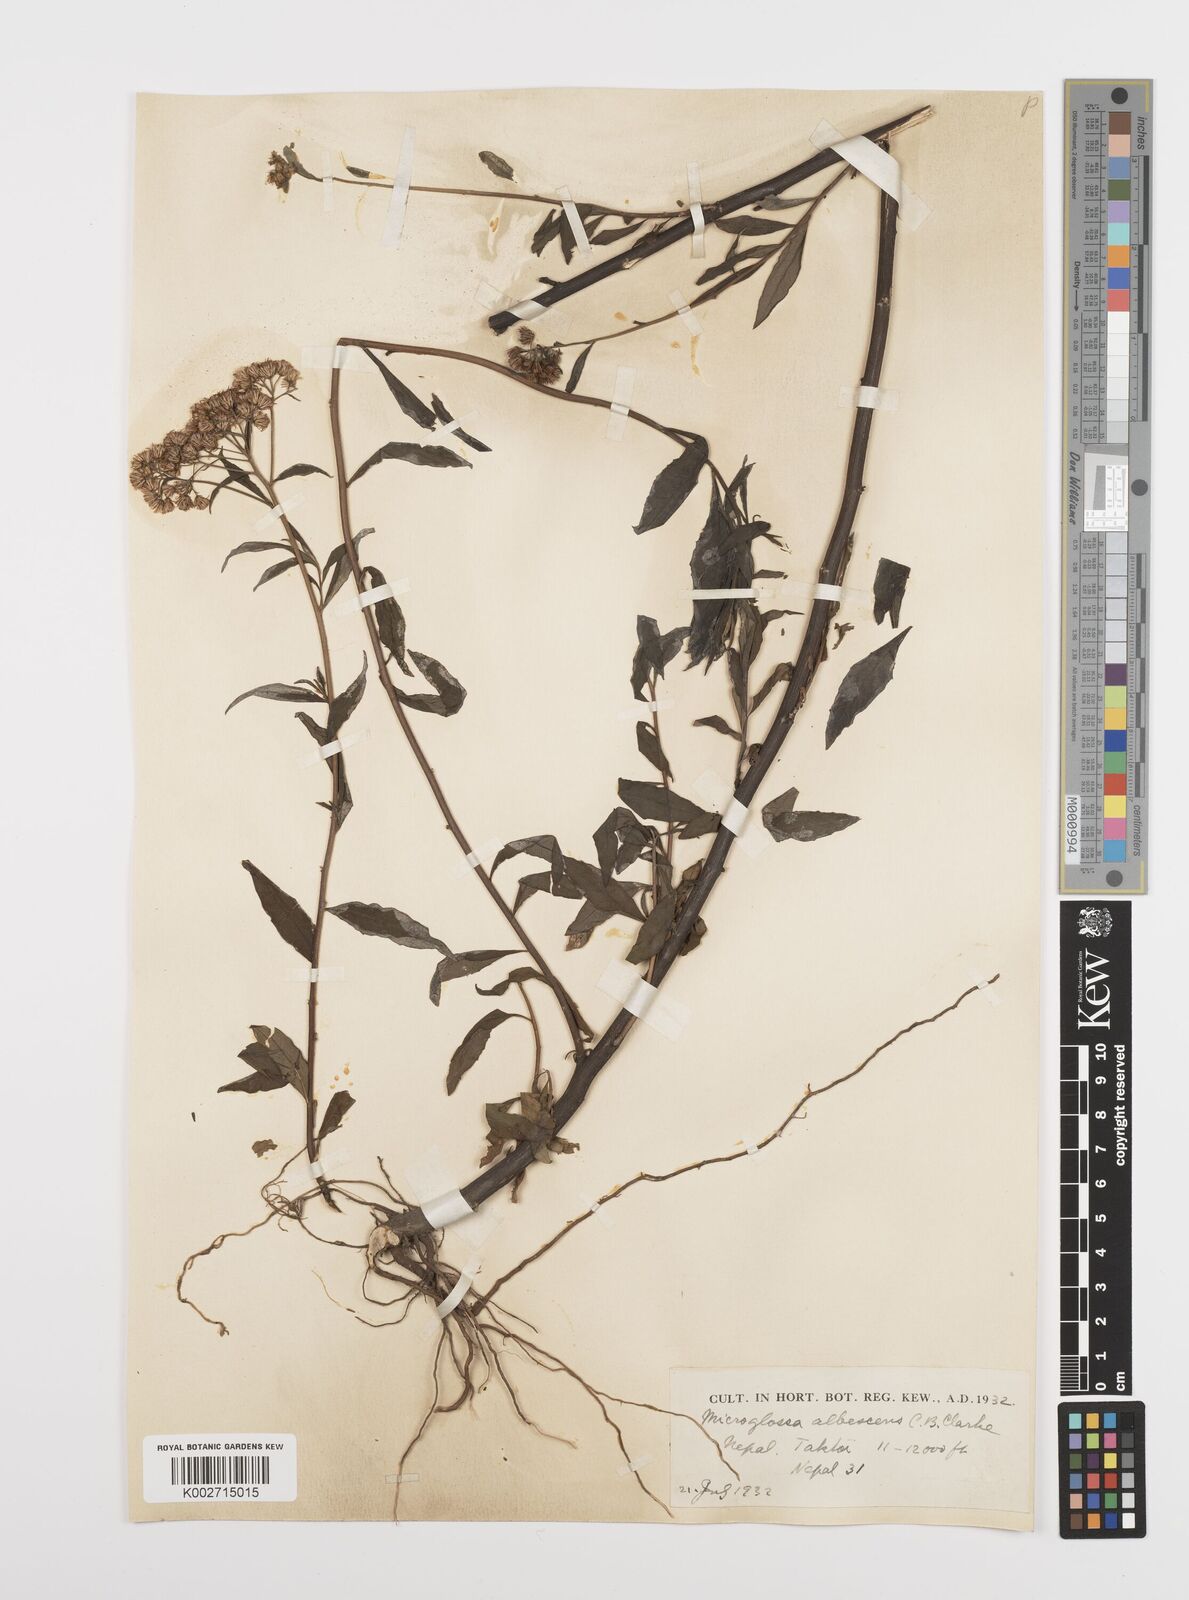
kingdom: Plantae
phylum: Tracheophyta
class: Magnoliopsida
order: Asterales
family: Asteraceae
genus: Sinosidus
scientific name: Sinosidus albescens
